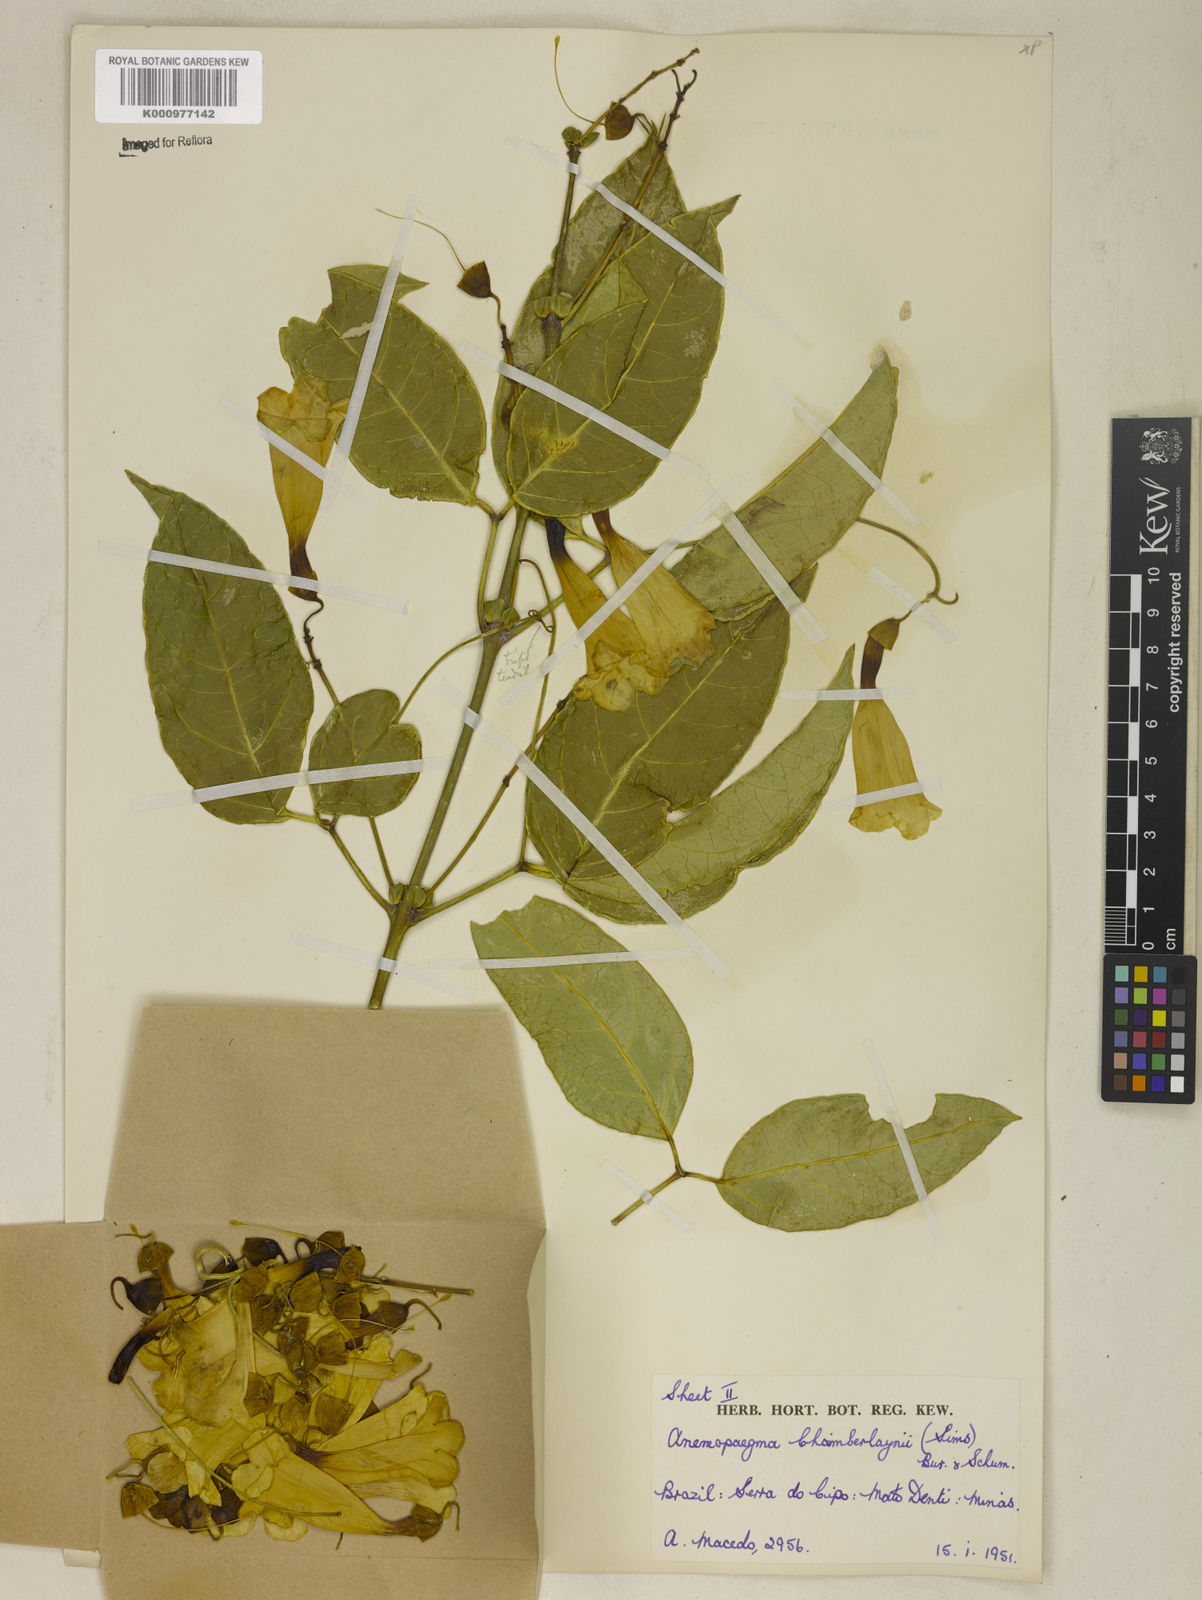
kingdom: Plantae
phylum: Tracheophyta
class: Magnoliopsida
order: Lamiales
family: Bignoniaceae
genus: Anemopaegma
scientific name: Anemopaegma chamberlaynii
